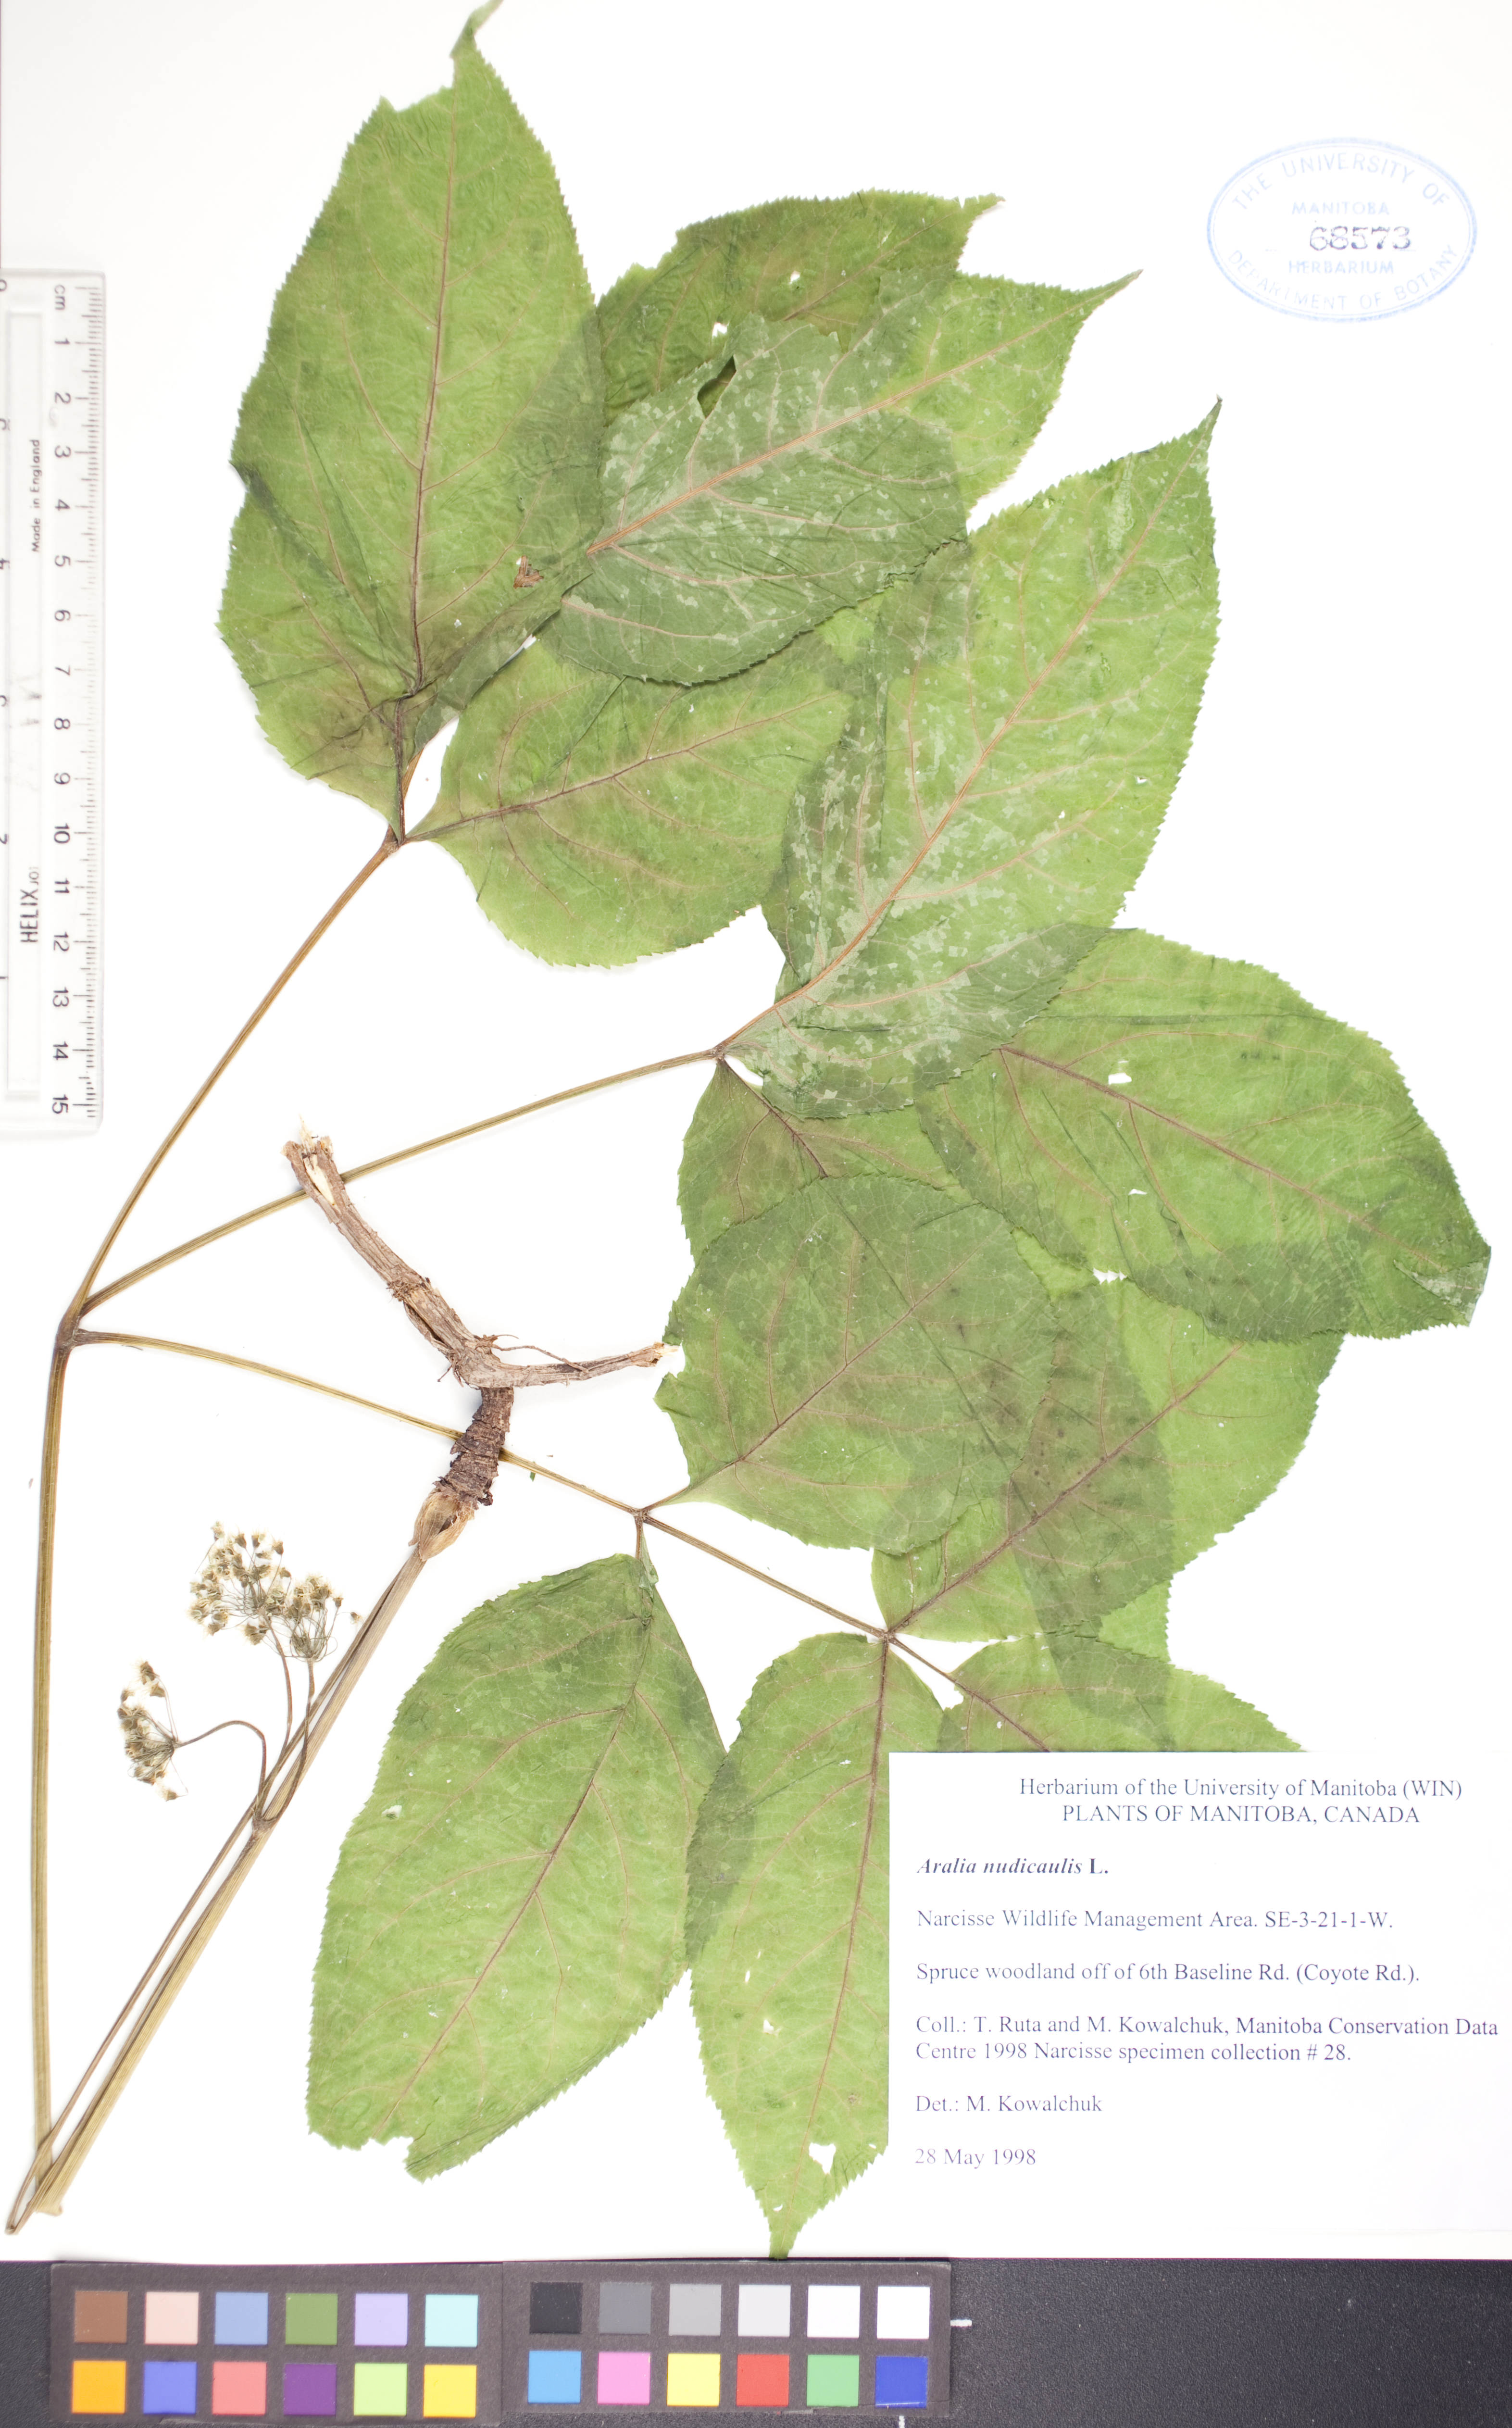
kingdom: Plantae
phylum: Tracheophyta
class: Magnoliopsida
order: Apiales
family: Araliaceae
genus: Aralia
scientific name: Aralia nudicaulis
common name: Wild sarsaparilla
